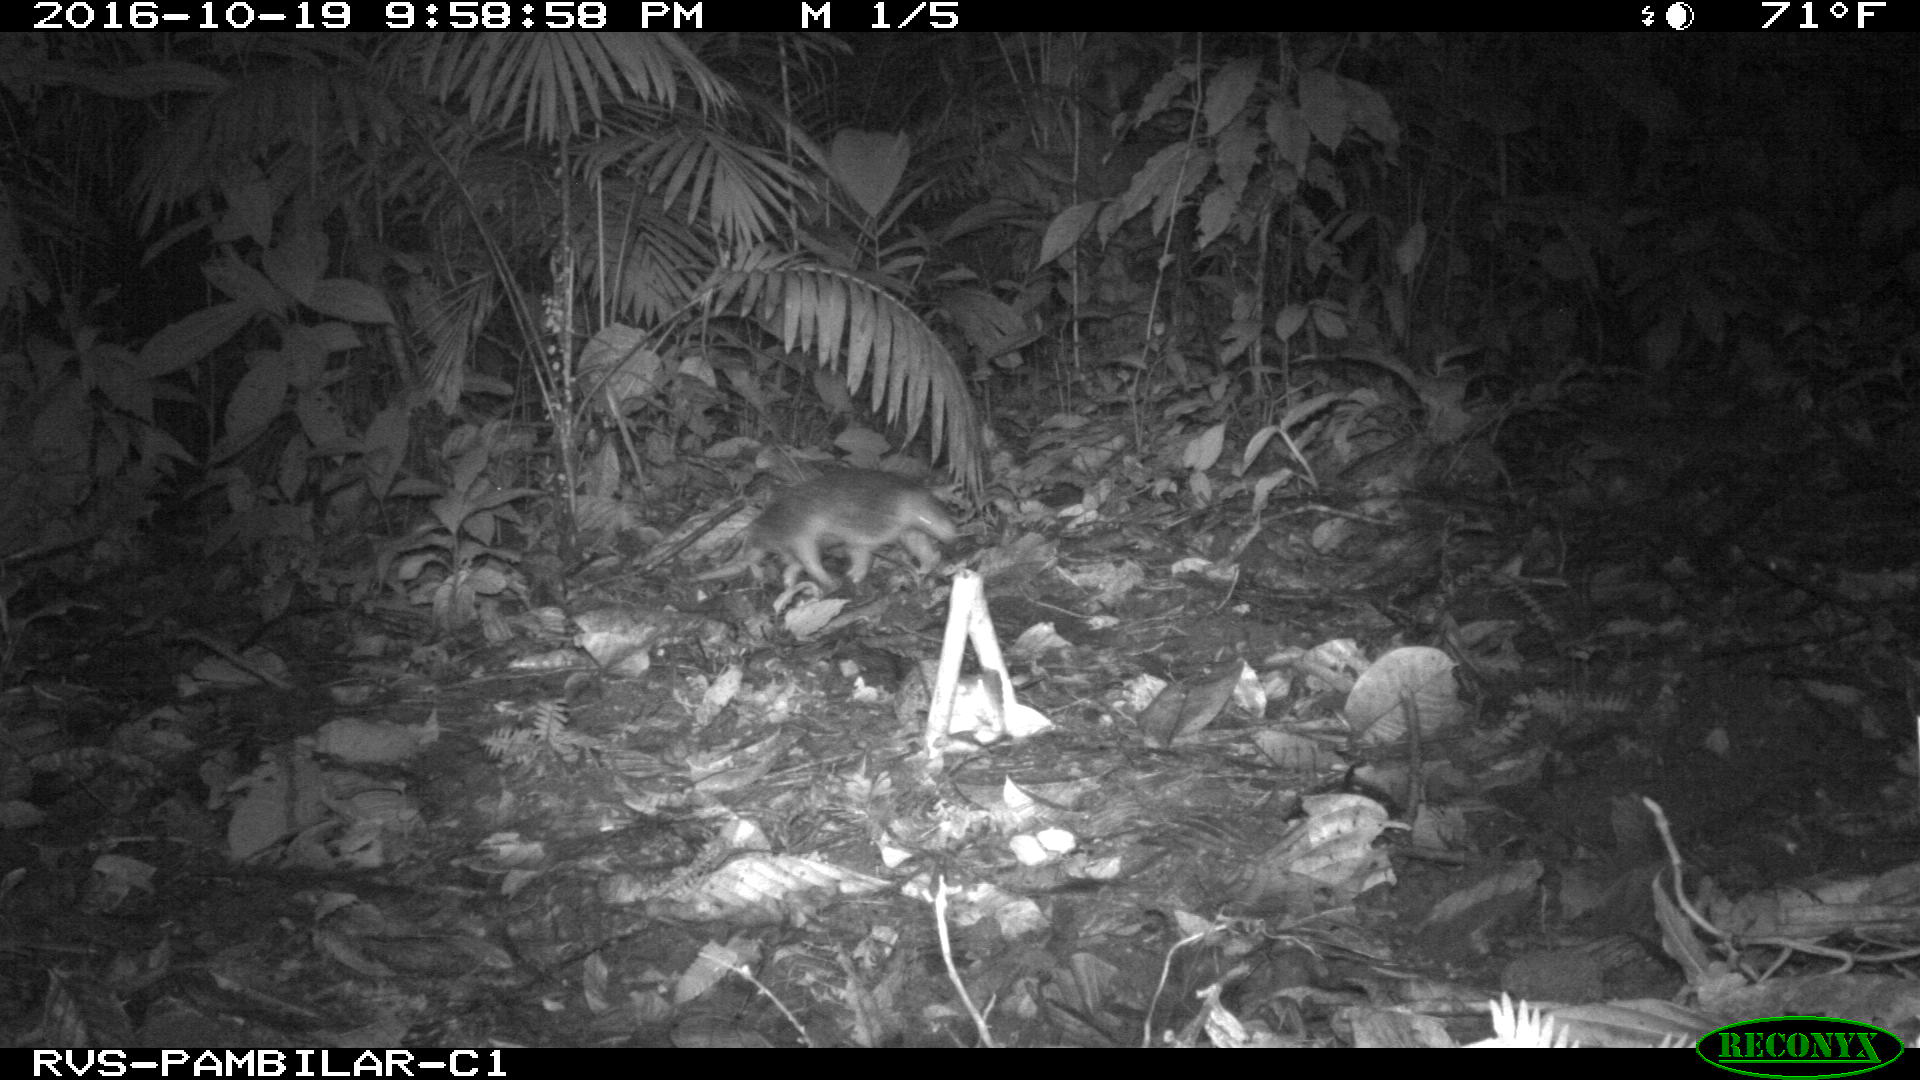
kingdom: Animalia
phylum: Chordata
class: Mammalia
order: Cingulata
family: Dasypodidae
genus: Cabassous
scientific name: Cabassous centralis
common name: Northern naked-tailed armadillo
